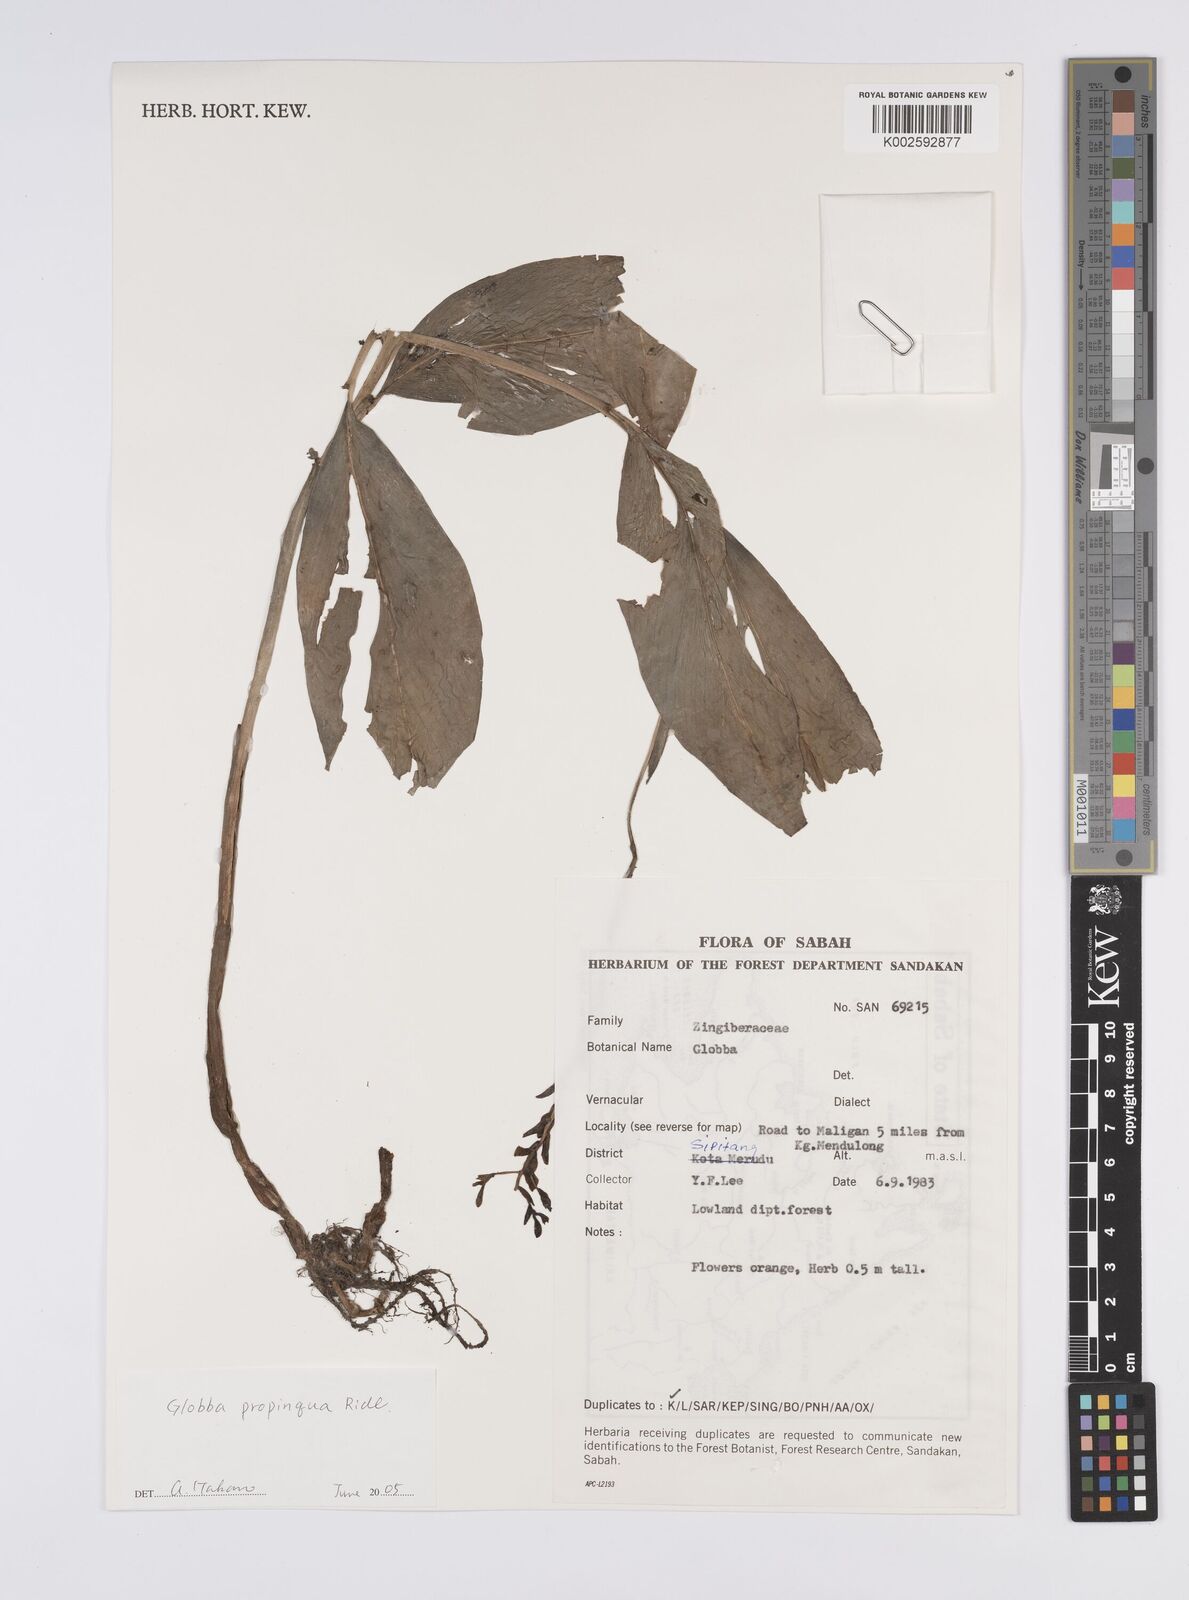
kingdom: Plantae
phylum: Tracheophyta
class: Liliopsida
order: Zingiberales
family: Zingiberaceae
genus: Globba
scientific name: Globba propinqua
